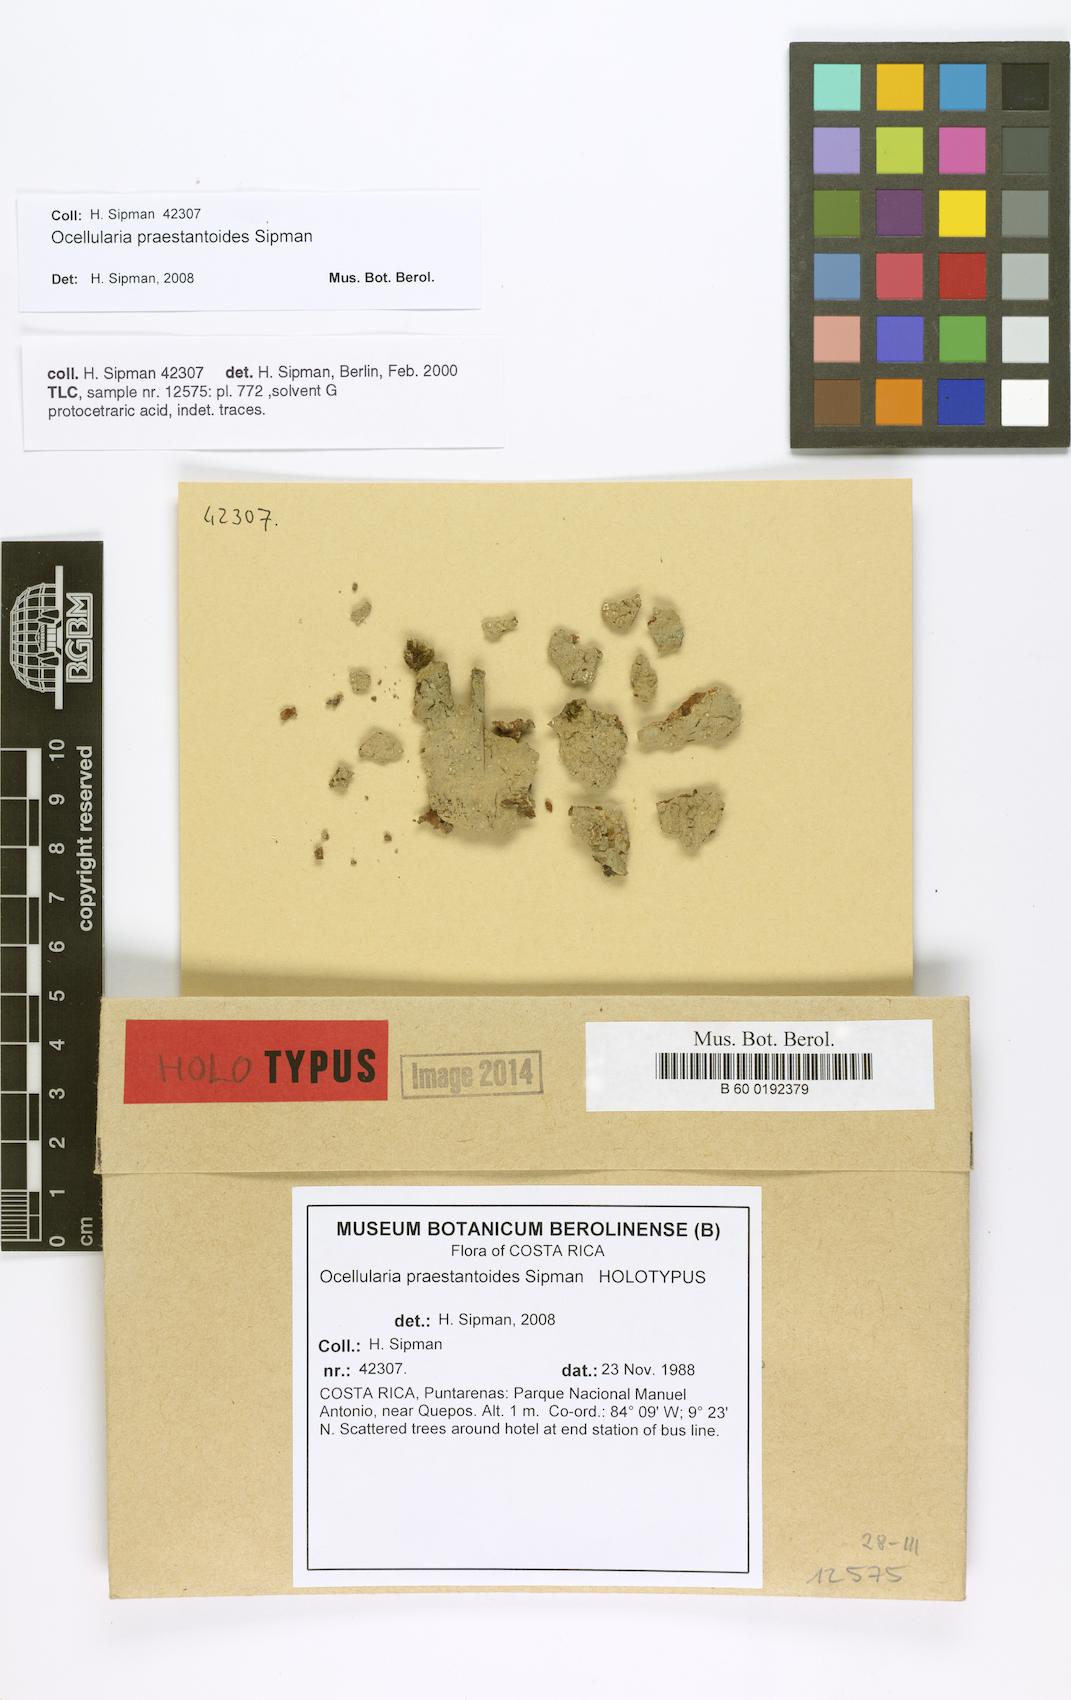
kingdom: Fungi
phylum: Ascomycota
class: Lecanoromycetes
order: Ostropales
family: Graphidaceae
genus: Ocellularia
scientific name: Ocellularia praestantoides
